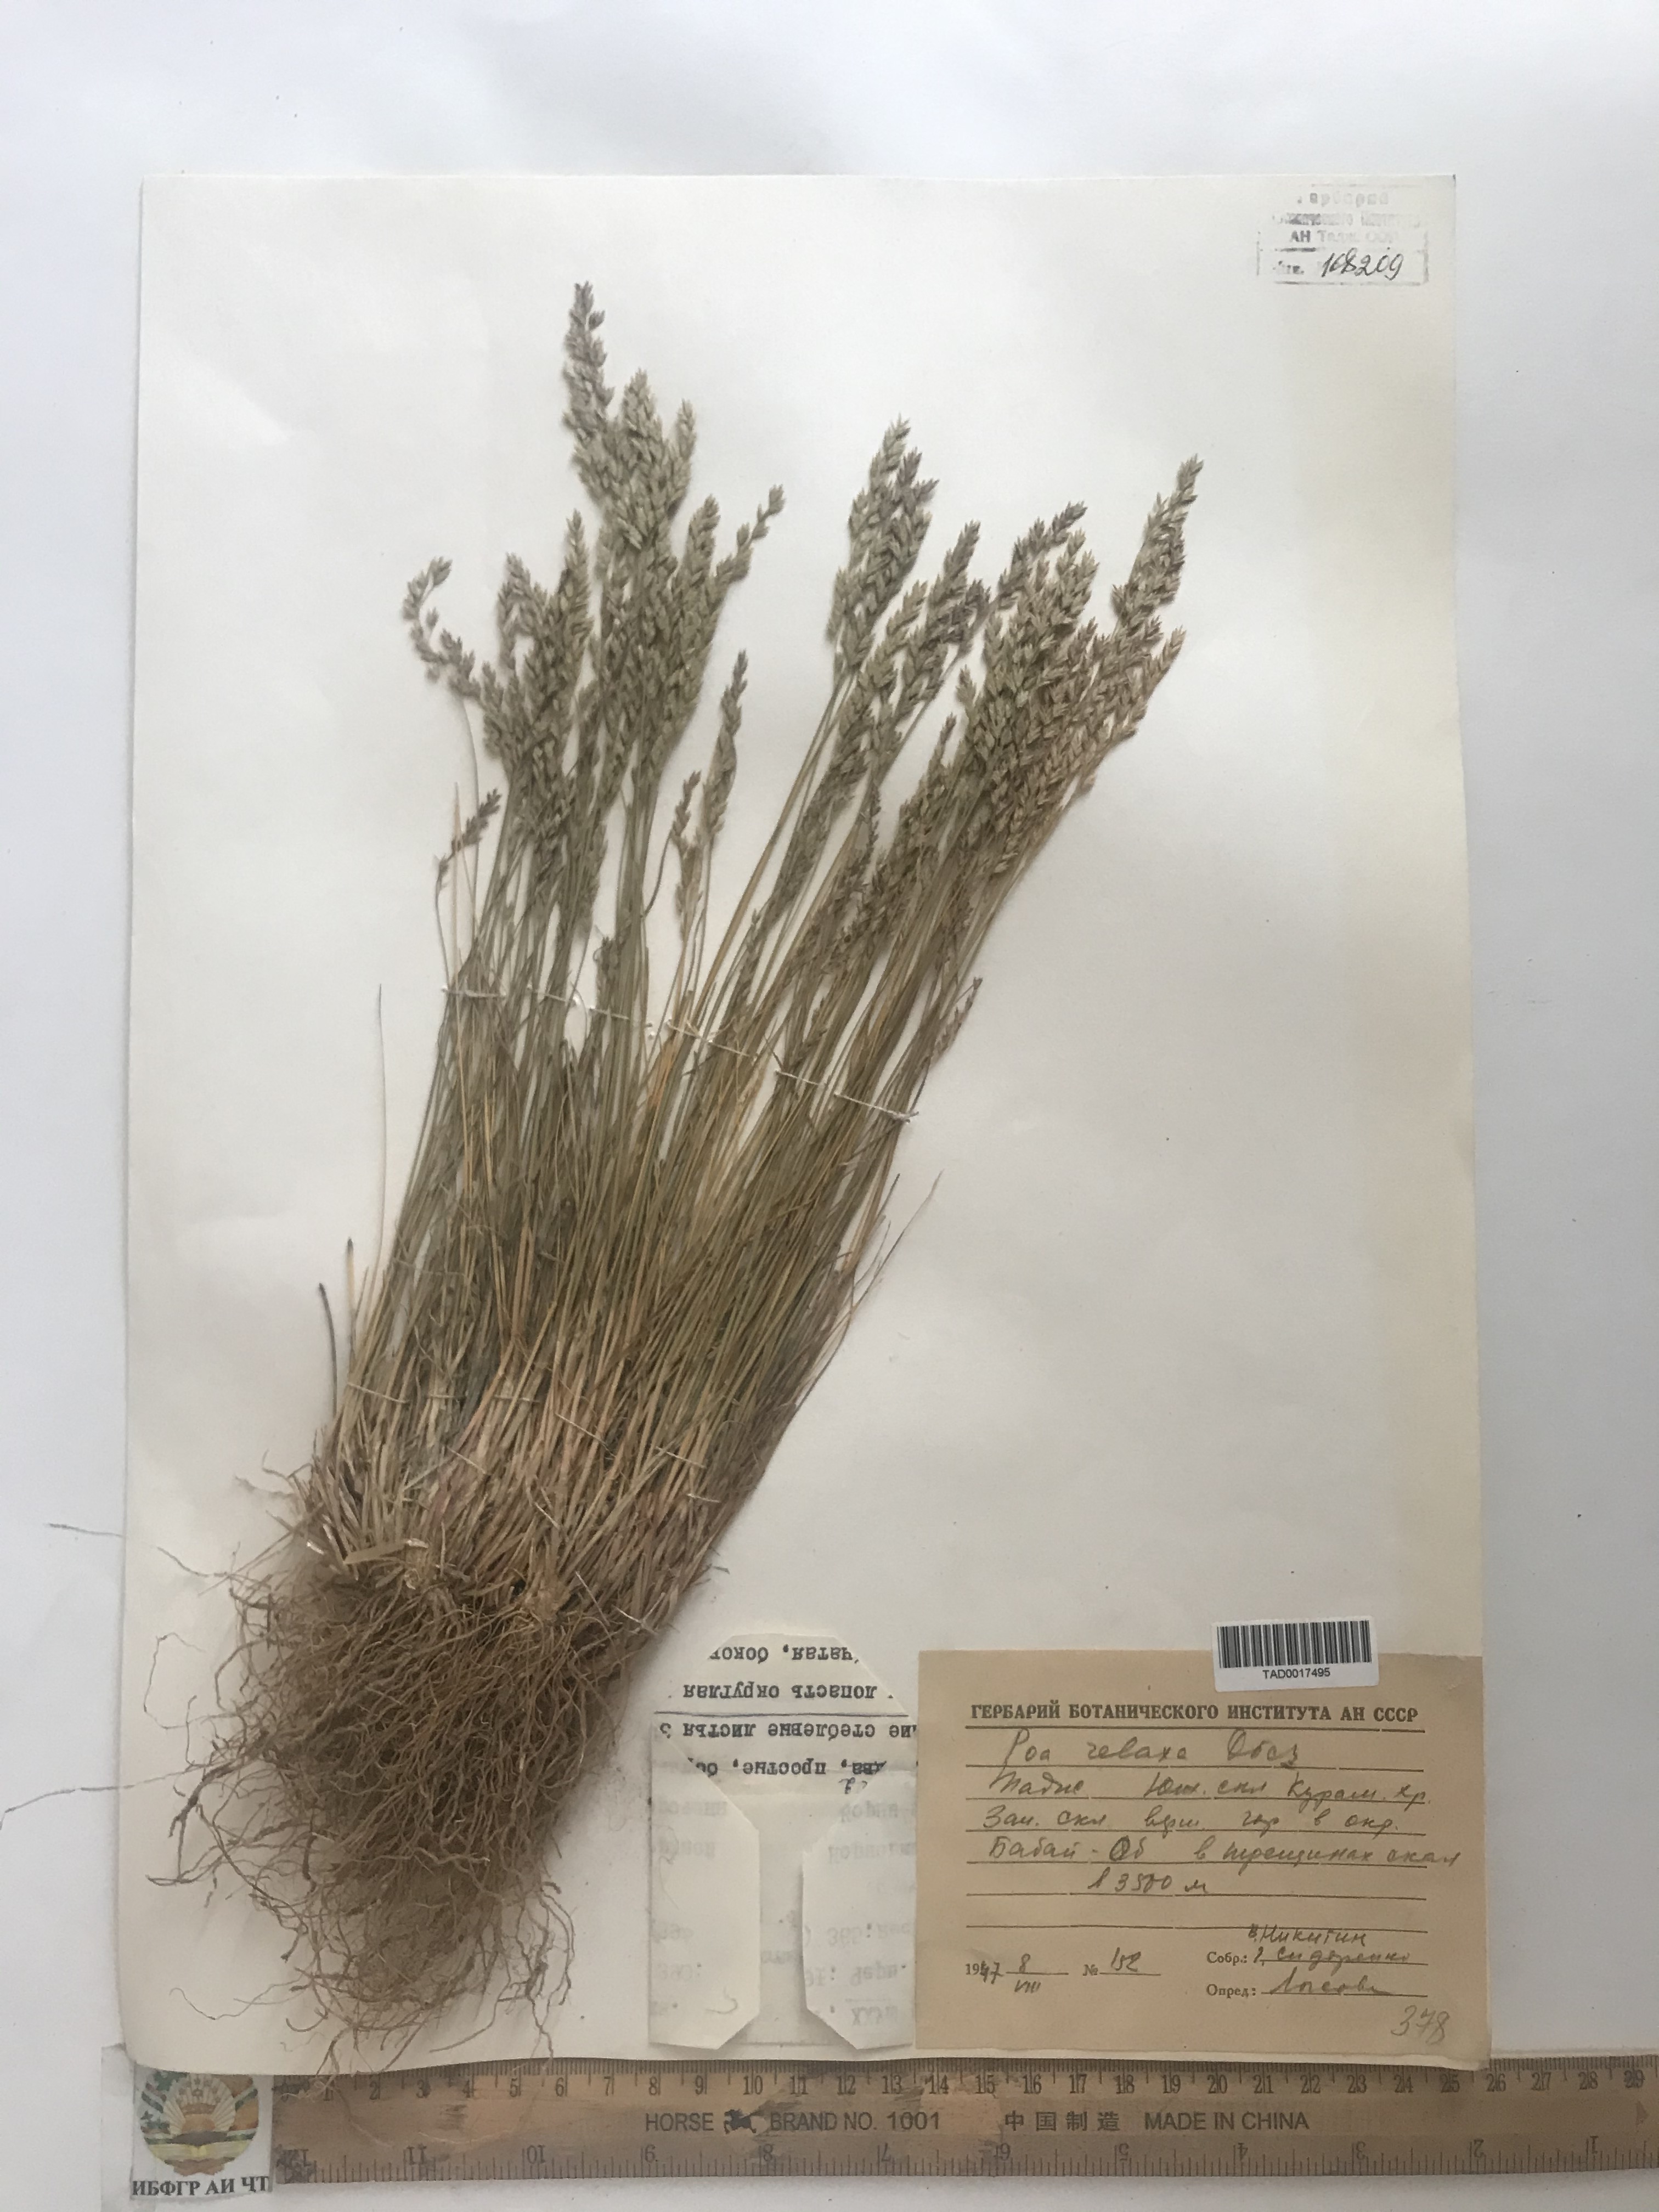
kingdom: Plantae
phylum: Tracheophyta
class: Liliopsida
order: Poales
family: Poaceae
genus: Poa
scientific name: Poa versicolor
